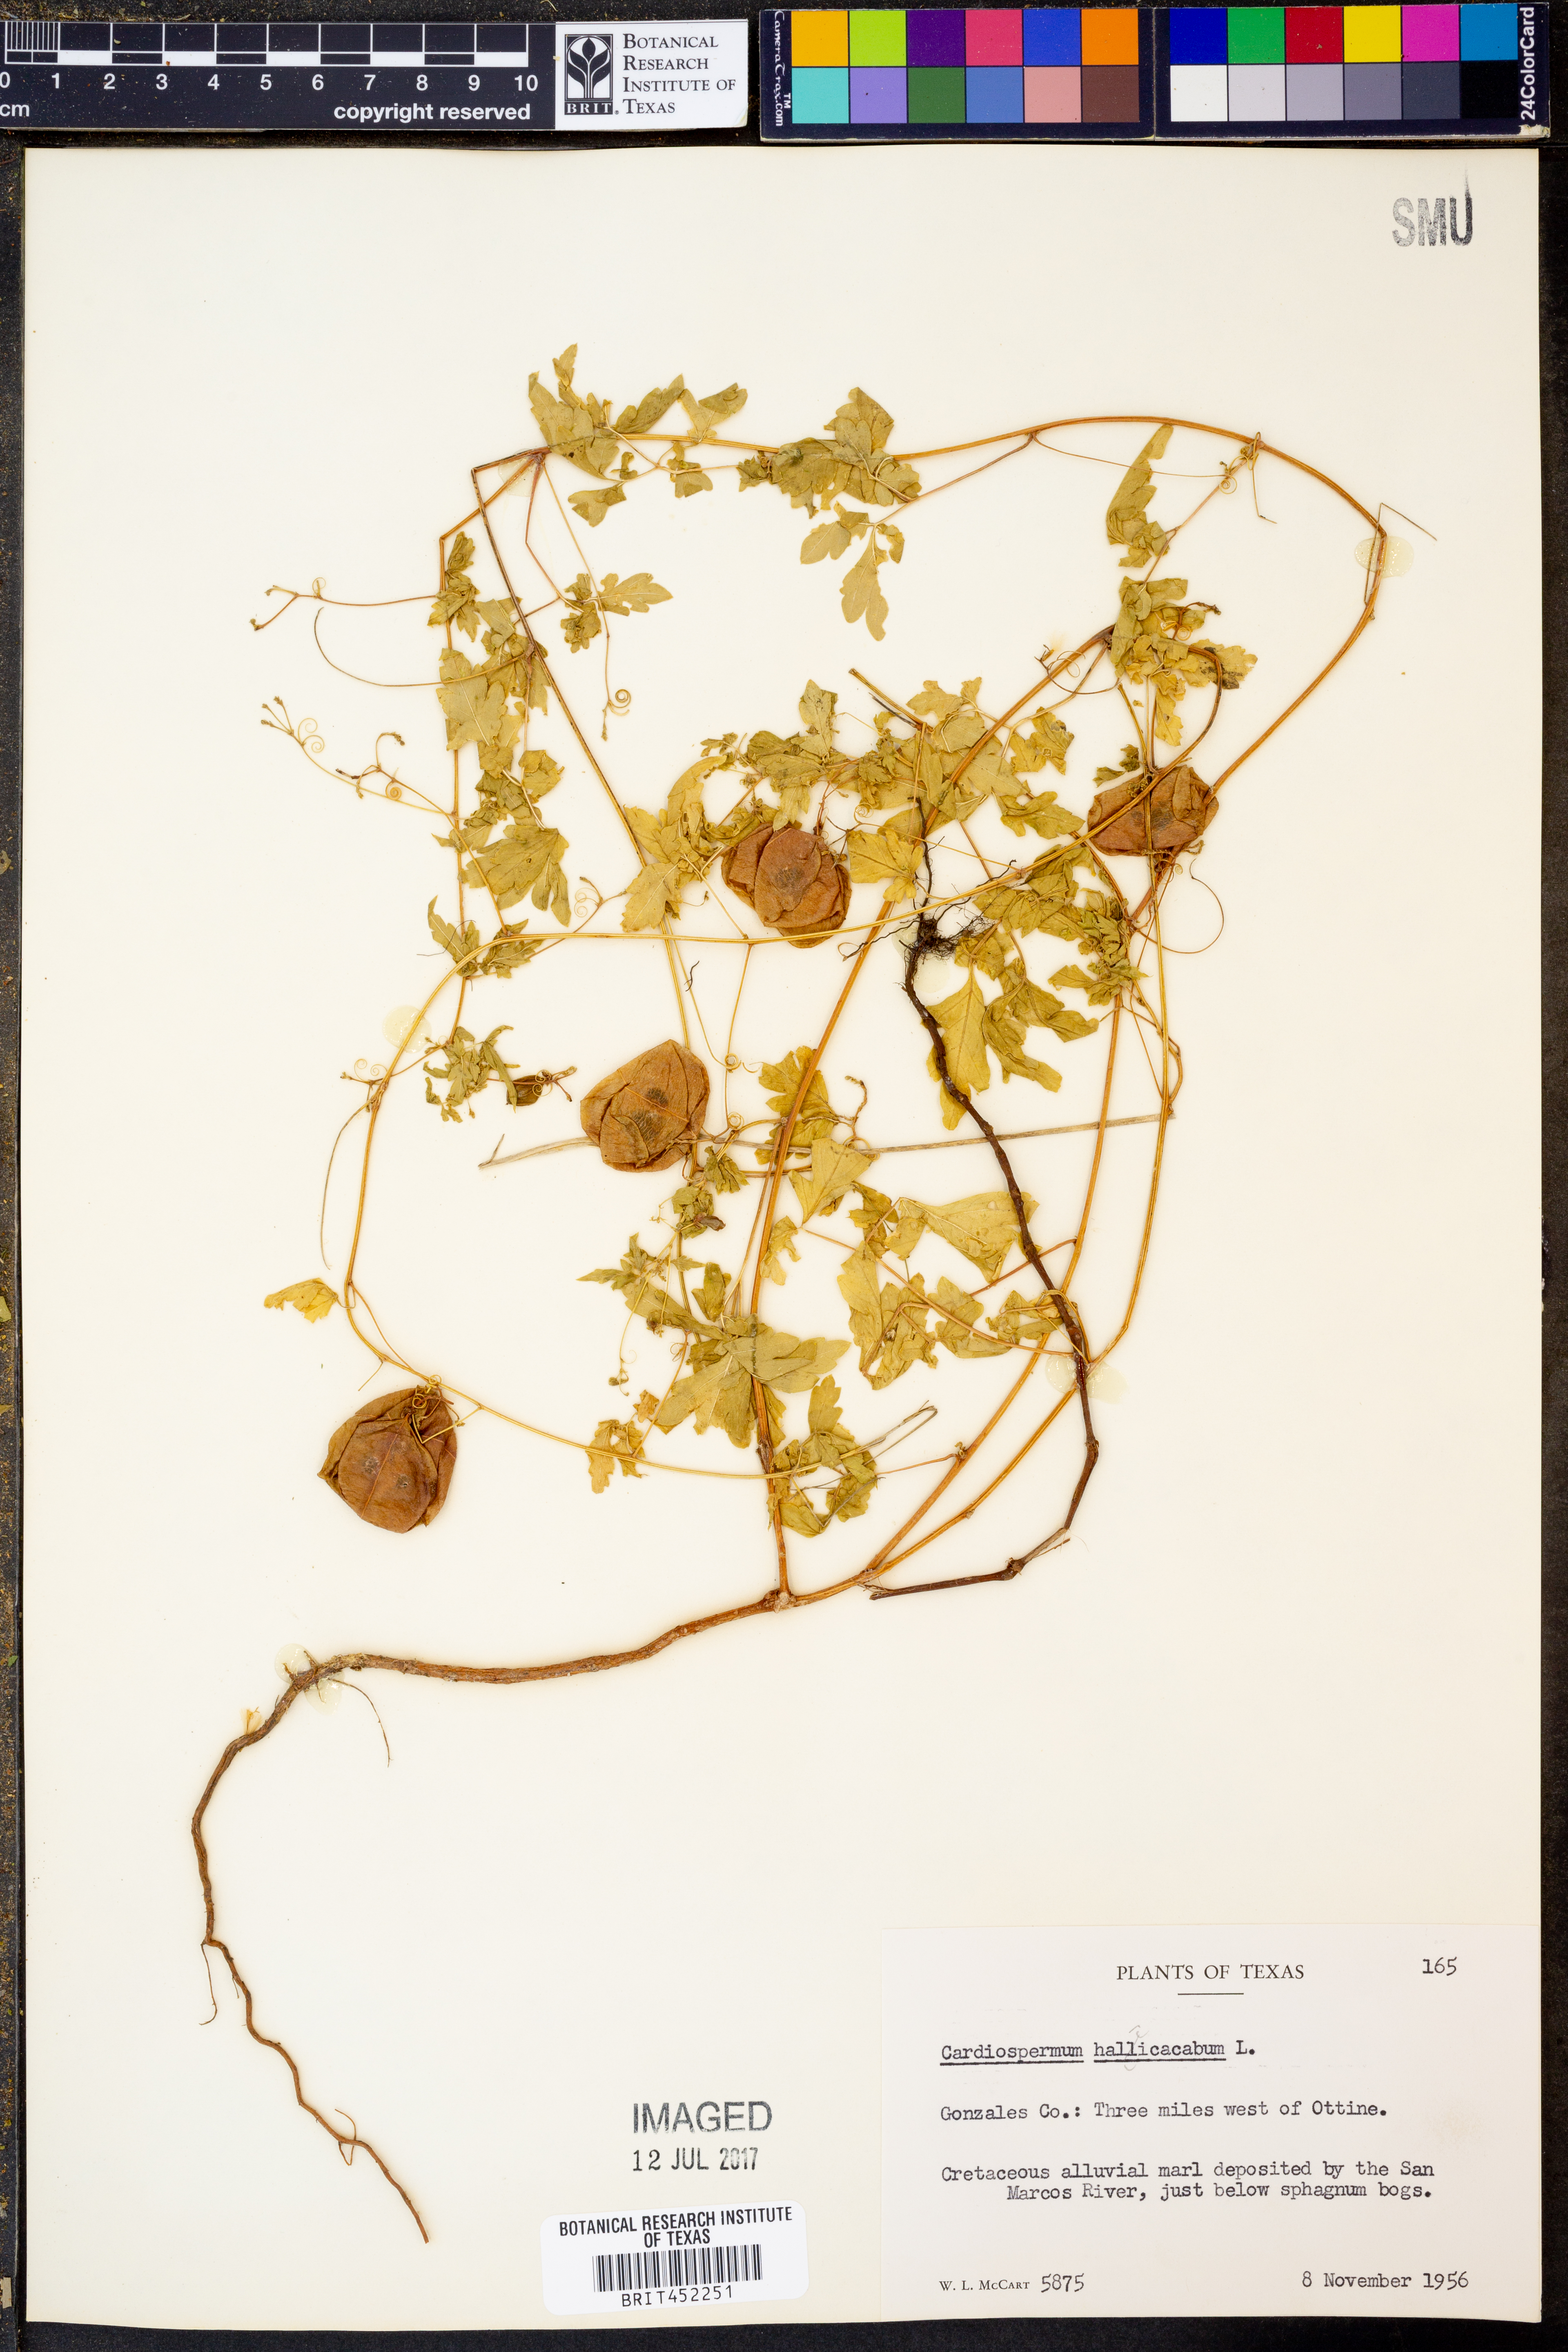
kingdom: Plantae
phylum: Tracheophyta
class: Magnoliopsida
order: Sapindales
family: Sapindaceae
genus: Cardiospermum
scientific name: Cardiospermum halicacabum
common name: Balloon vine
